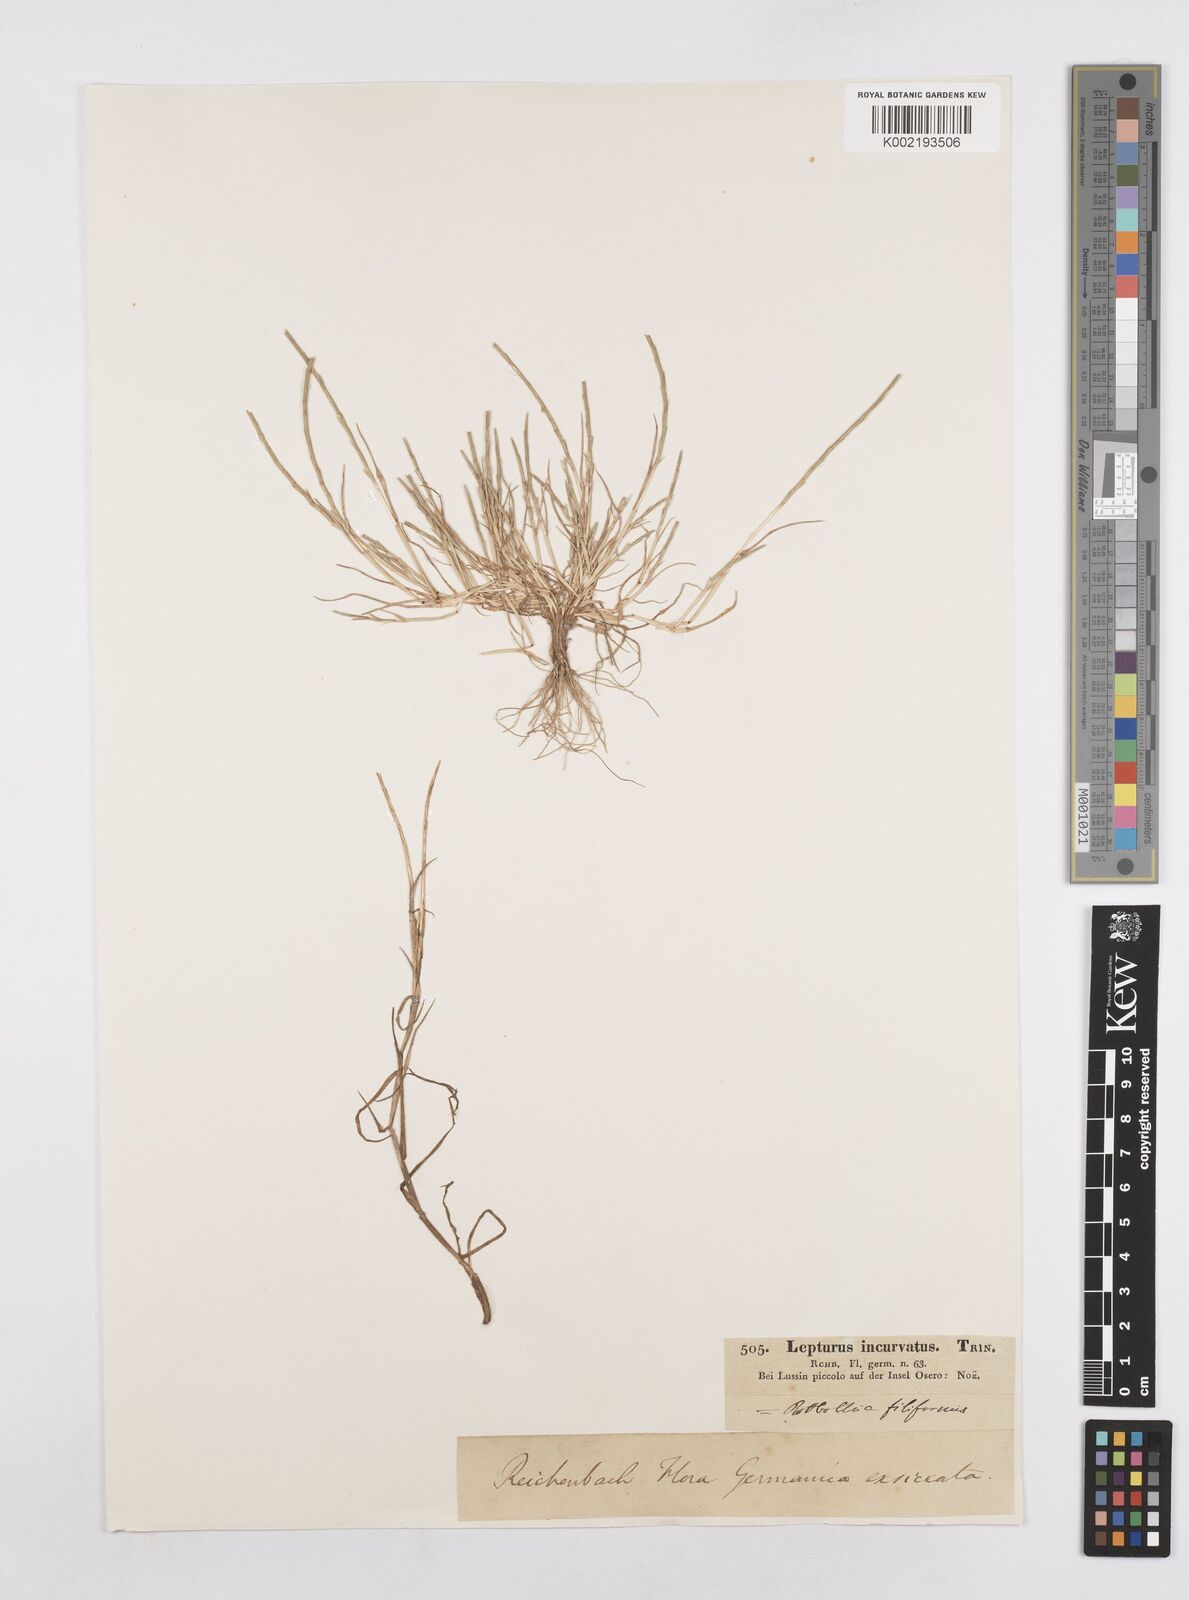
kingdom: Plantae
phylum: Tracheophyta
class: Liliopsida
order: Poales
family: Poaceae
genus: Parapholis
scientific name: Parapholis incurva
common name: Curved sicklegrass
